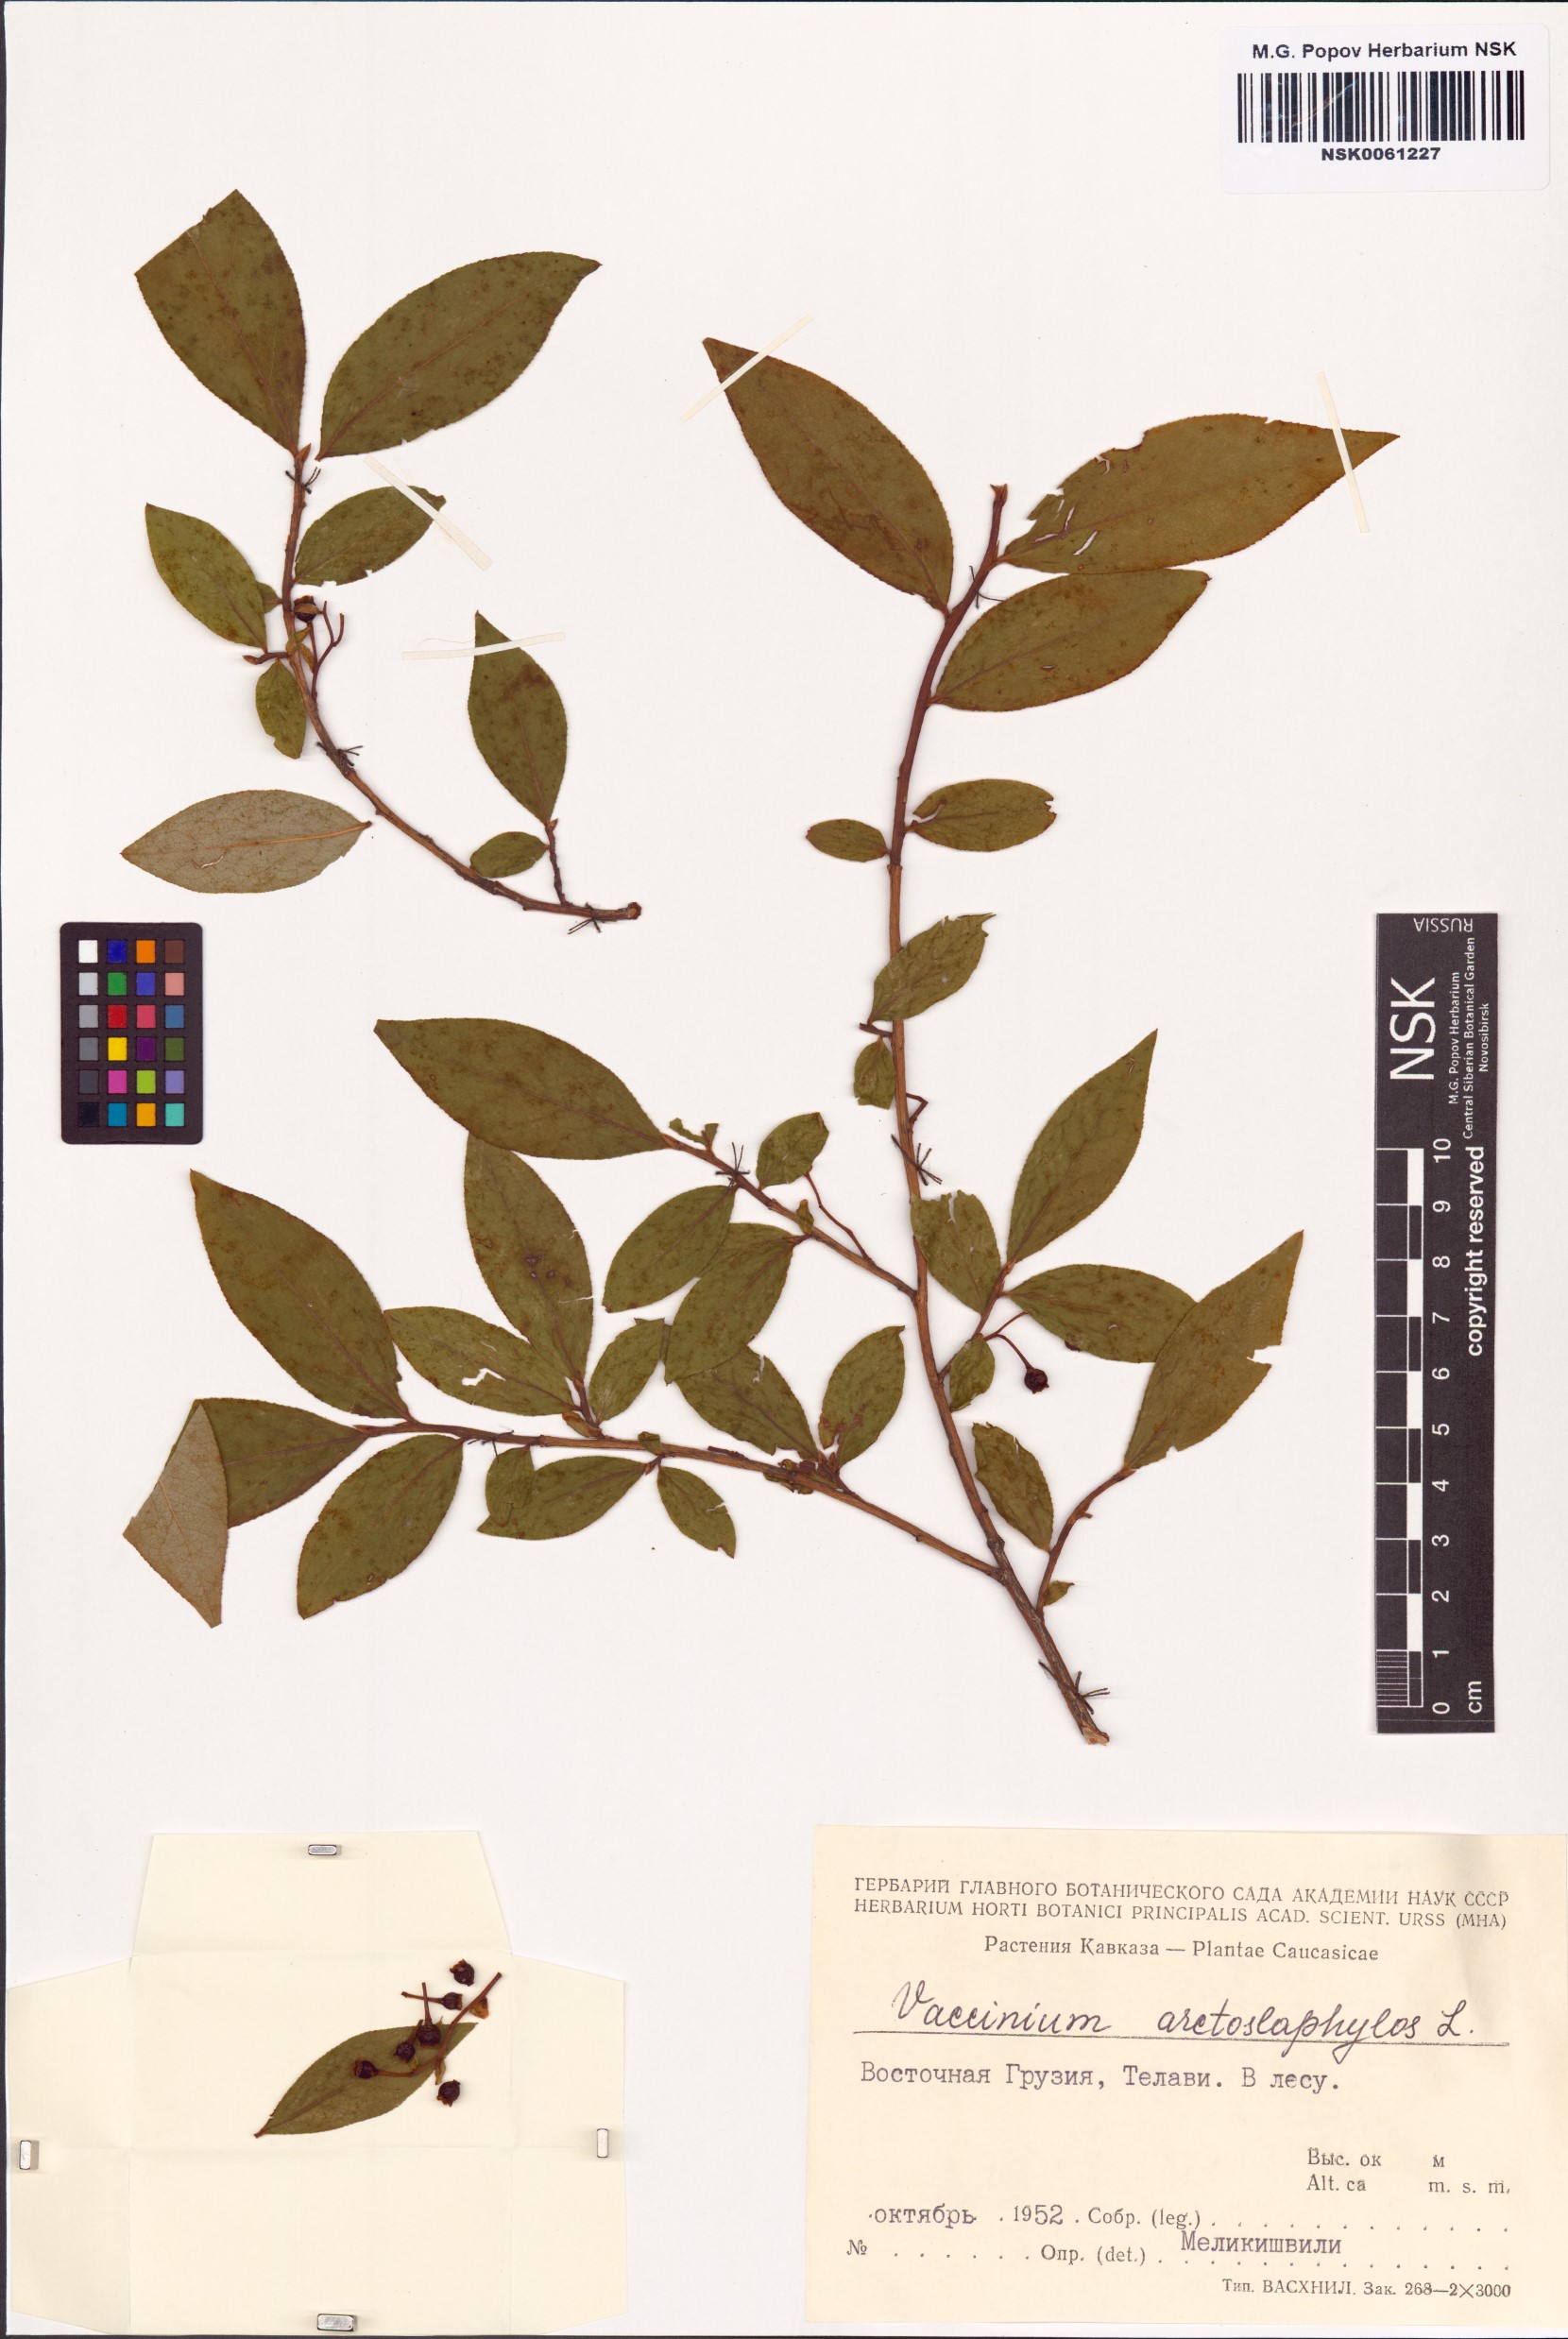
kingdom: Plantae
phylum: Tracheophyta
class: Magnoliopsida
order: Ericales
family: Ericaceae
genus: Vaccinium
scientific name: Vaccinium arctostaphylos
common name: Caucasian whortleberry
